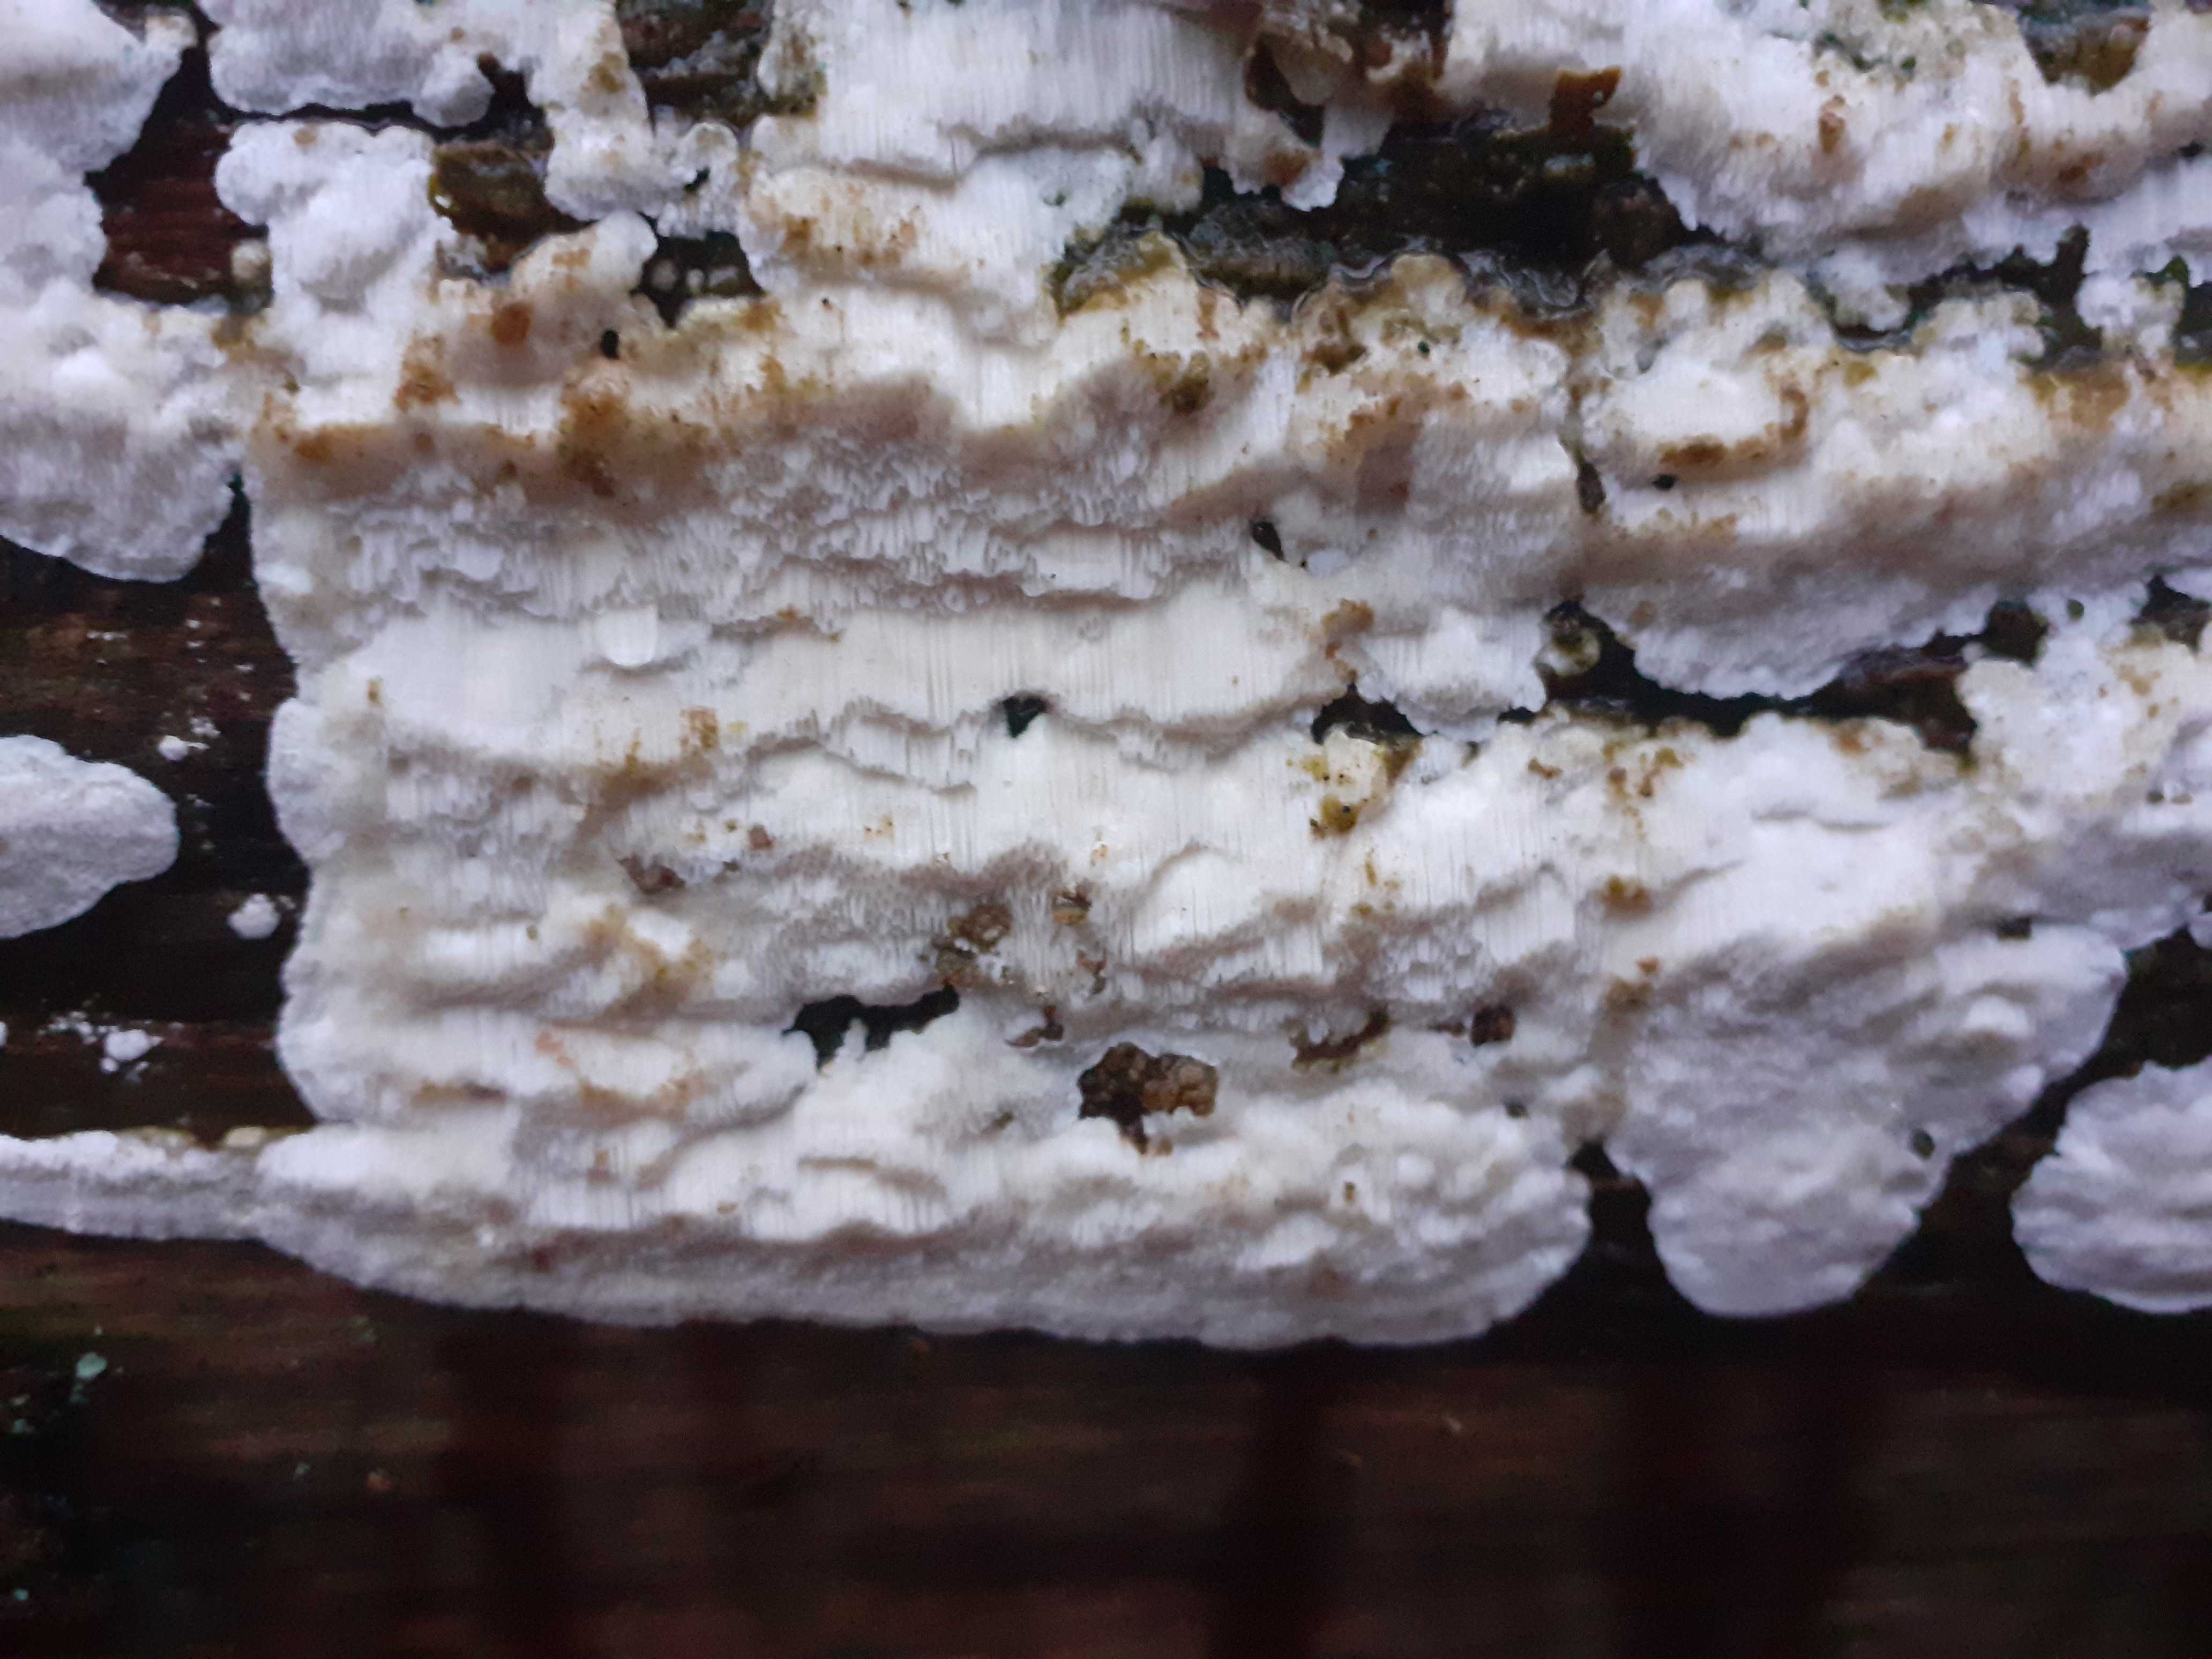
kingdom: Fungi
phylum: Basidiomycota
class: Agaricomycetes
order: Polyporales
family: Gelatoporiaceae
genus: Cinereomyces
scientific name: Cinereomyces lindbladii
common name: almindelig gråporesvamp
